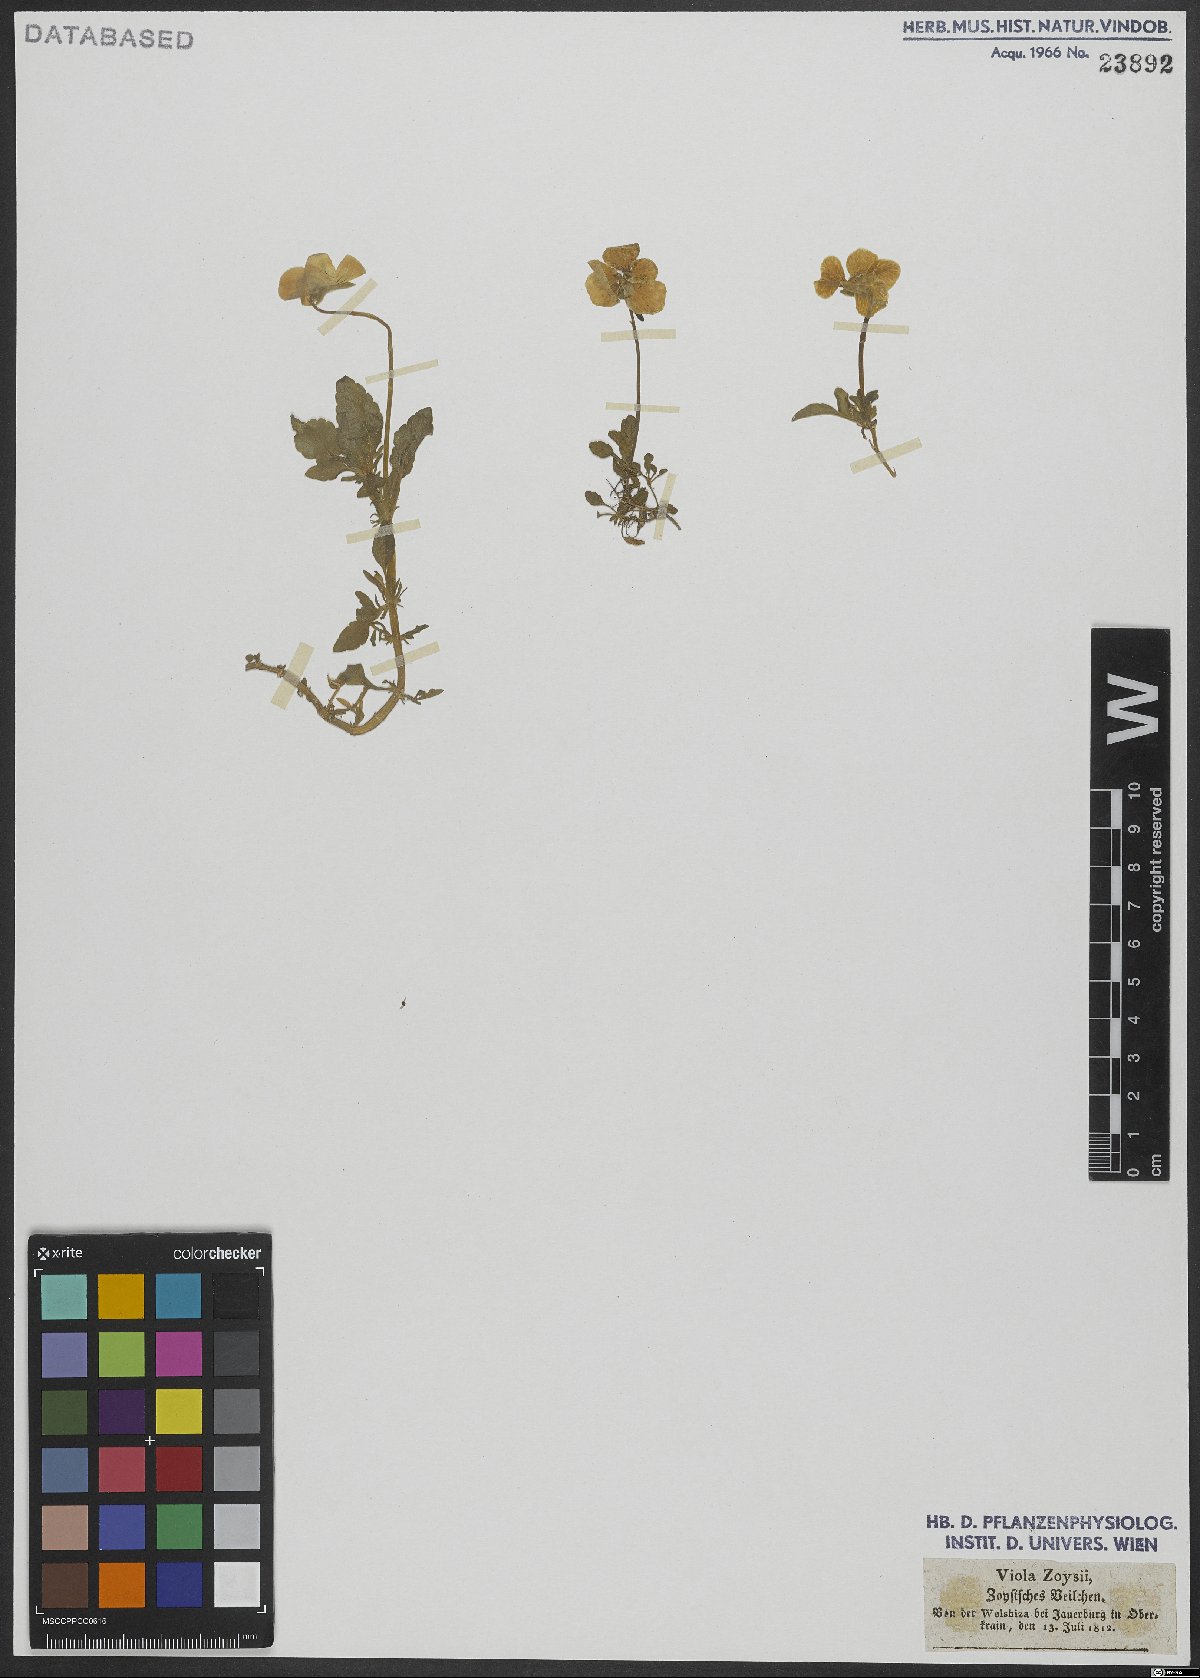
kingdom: Plantae
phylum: Tracheophyta
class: Magnoliopsida
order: Malpighiales
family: Violaceae
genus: Viola
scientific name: Viola calcarata
